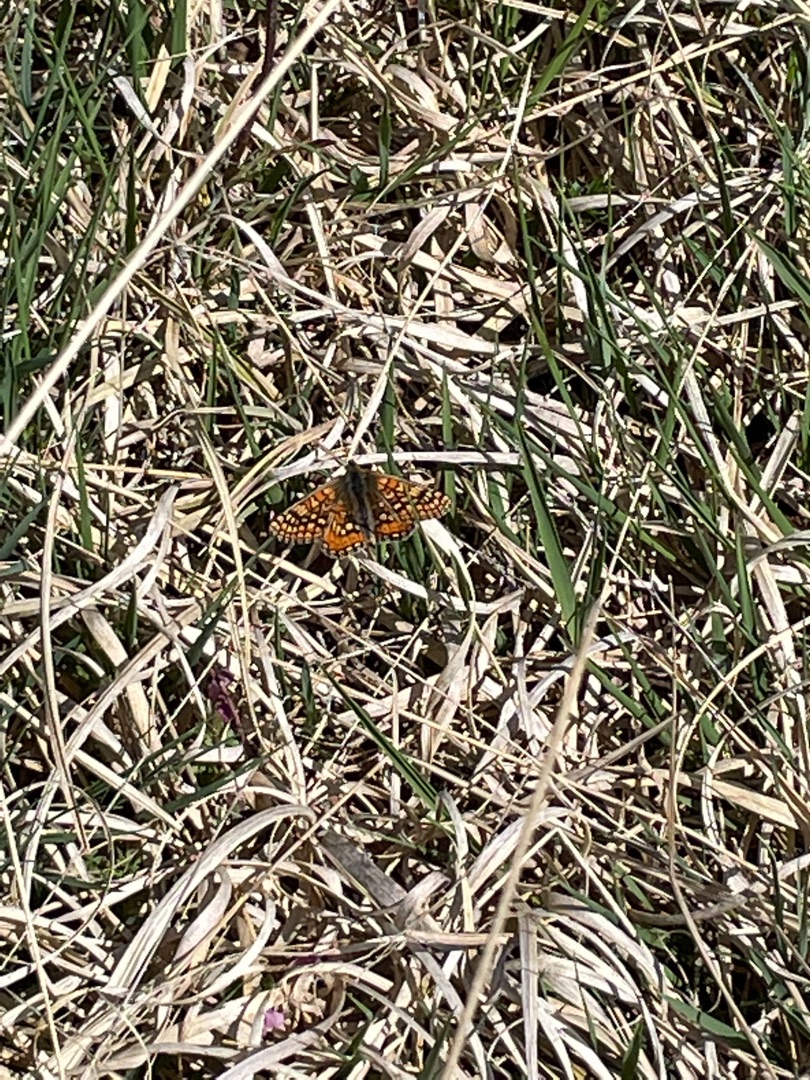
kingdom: Animalia
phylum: Arthropoda
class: Insecta
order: Lepidoptera
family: Nymphalidae
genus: Euphydryas
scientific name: Euphydryas aurinia
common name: Hedepletvinge
